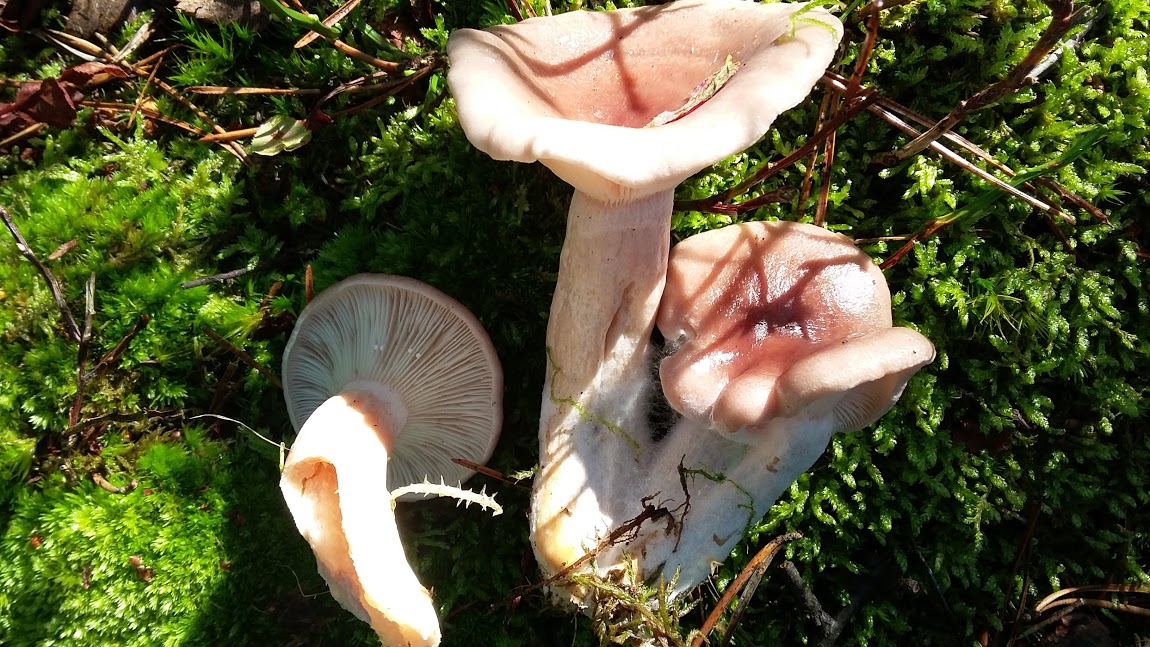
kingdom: Fungi
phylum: Basidiomycota
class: Agaricomycetes
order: Russulales
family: Russulaceae
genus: Lactarius
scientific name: Lactarius vietus
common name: violetgrå mælkehat
